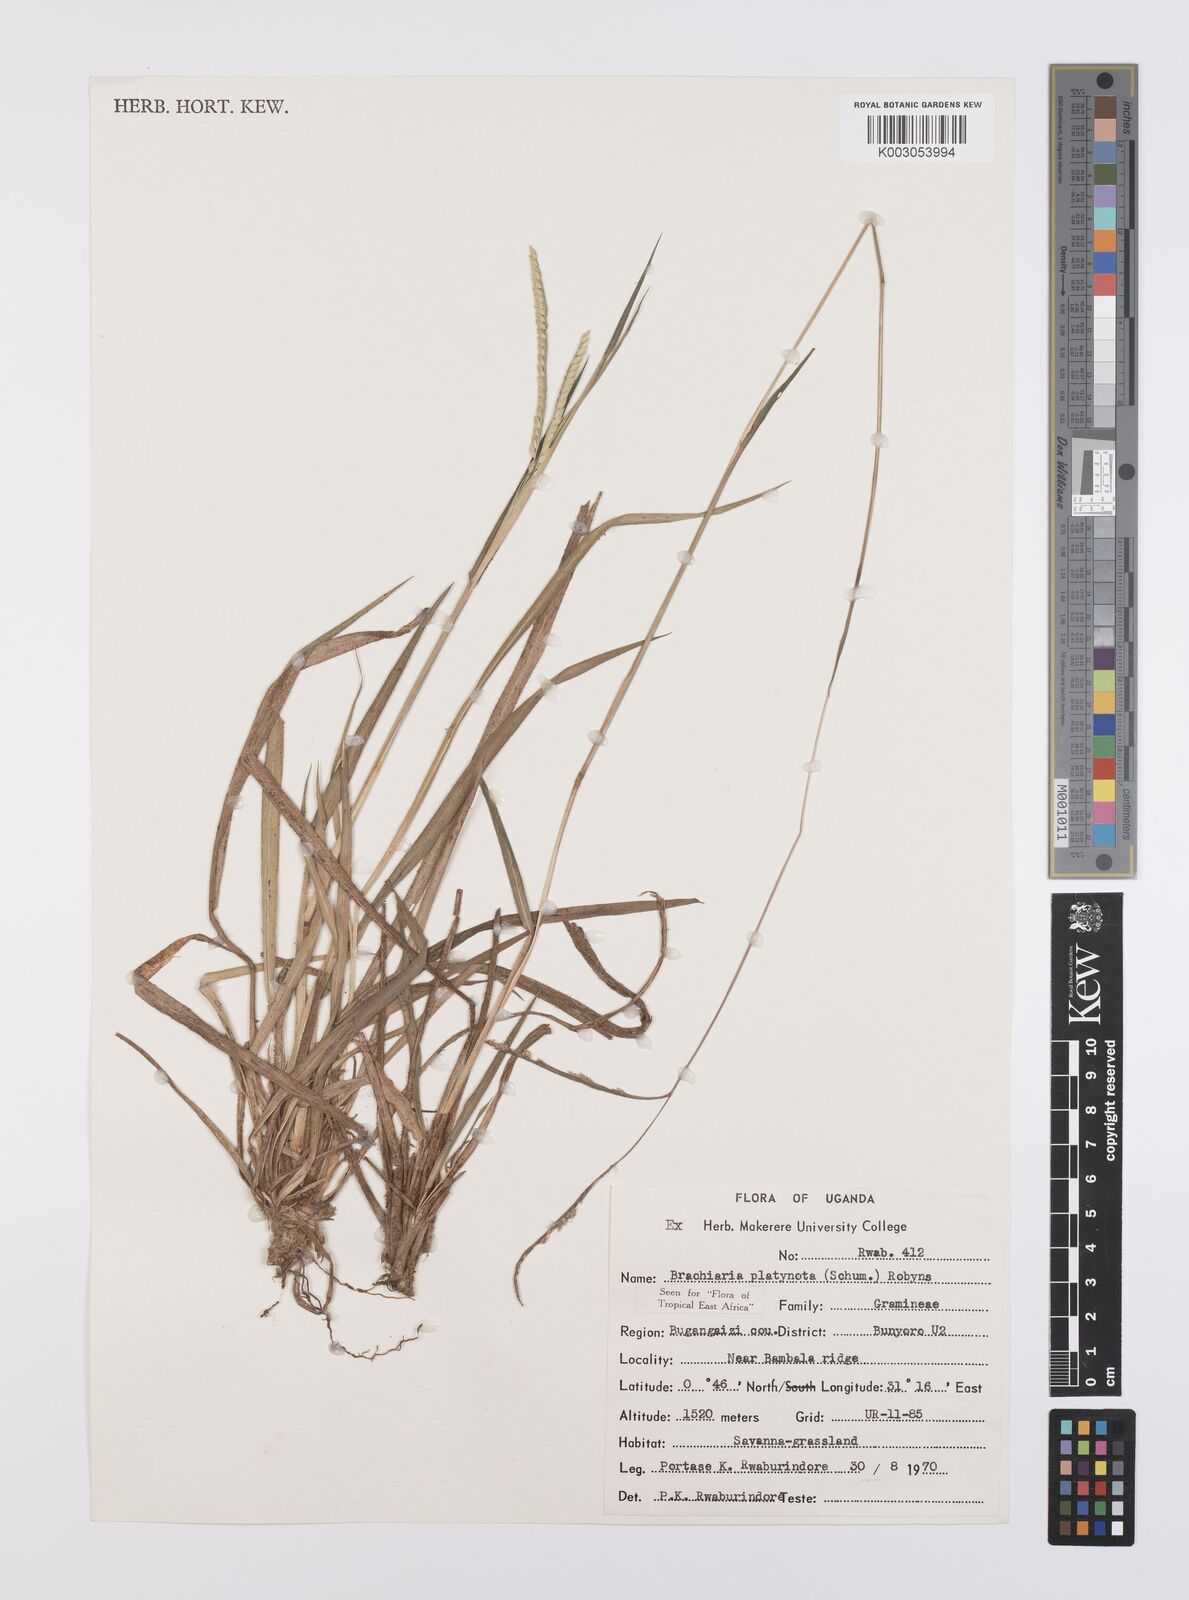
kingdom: Plantae
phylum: Tracheophyta
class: Liliopsida
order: Poales
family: Poaceae
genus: Urochloa
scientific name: Urochloa platynota
